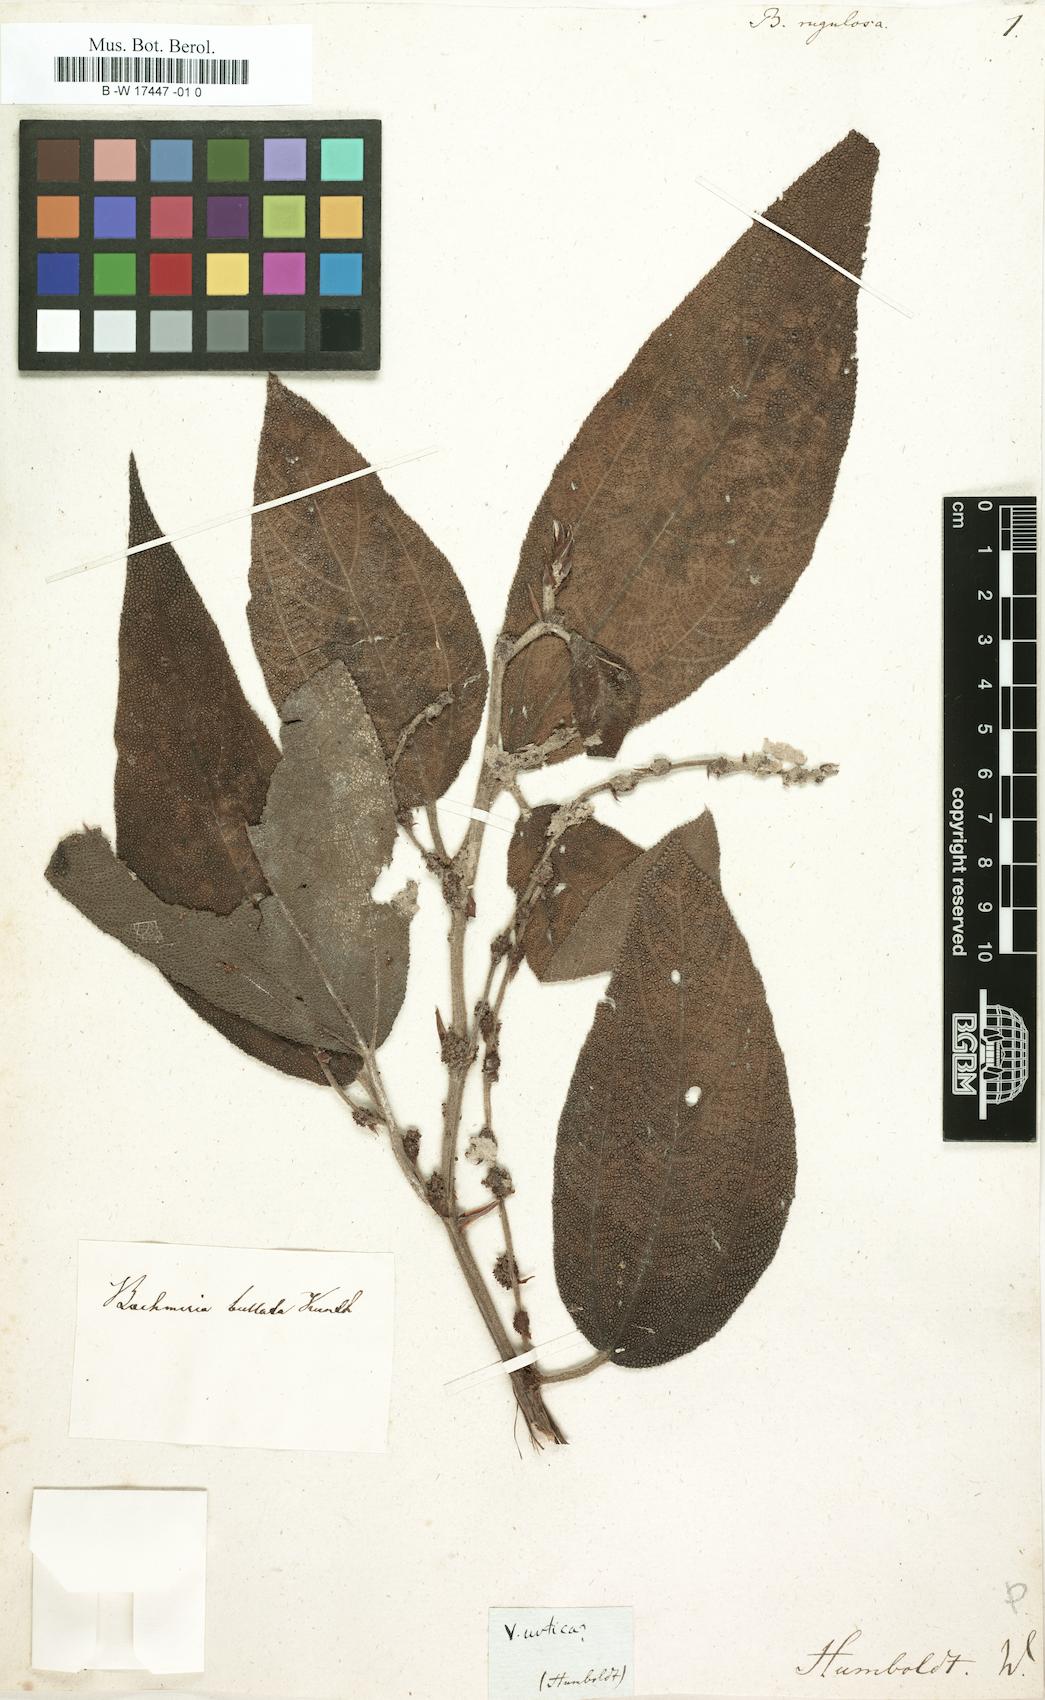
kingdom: Plantae
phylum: Tracheophyta
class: Magnoliopsida
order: Rosales
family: Urticaceae
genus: Pouzolzia
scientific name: Pouzolzia rugulosa
